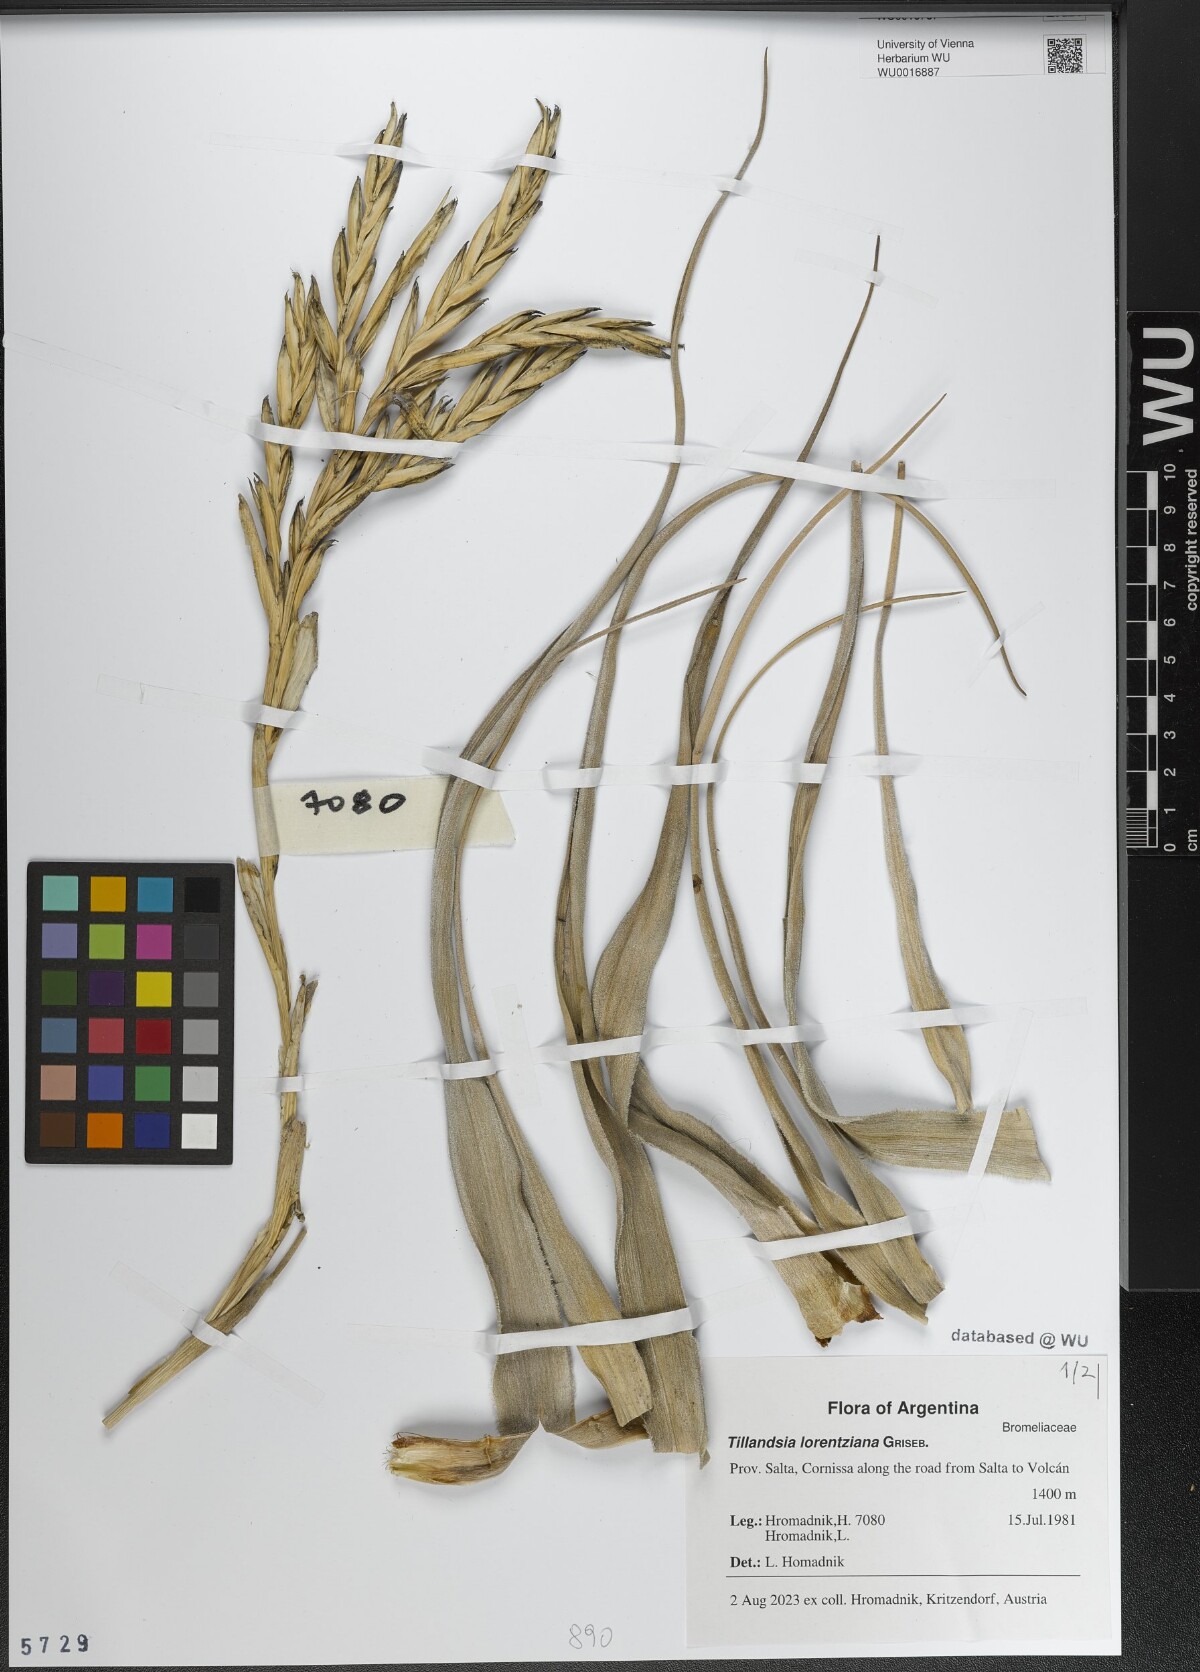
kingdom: Plantae
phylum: Tracheophyta
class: Liliopsida
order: Poales
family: Bromeliaceae
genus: Tillandsia
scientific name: Tillandsia lorentziana
